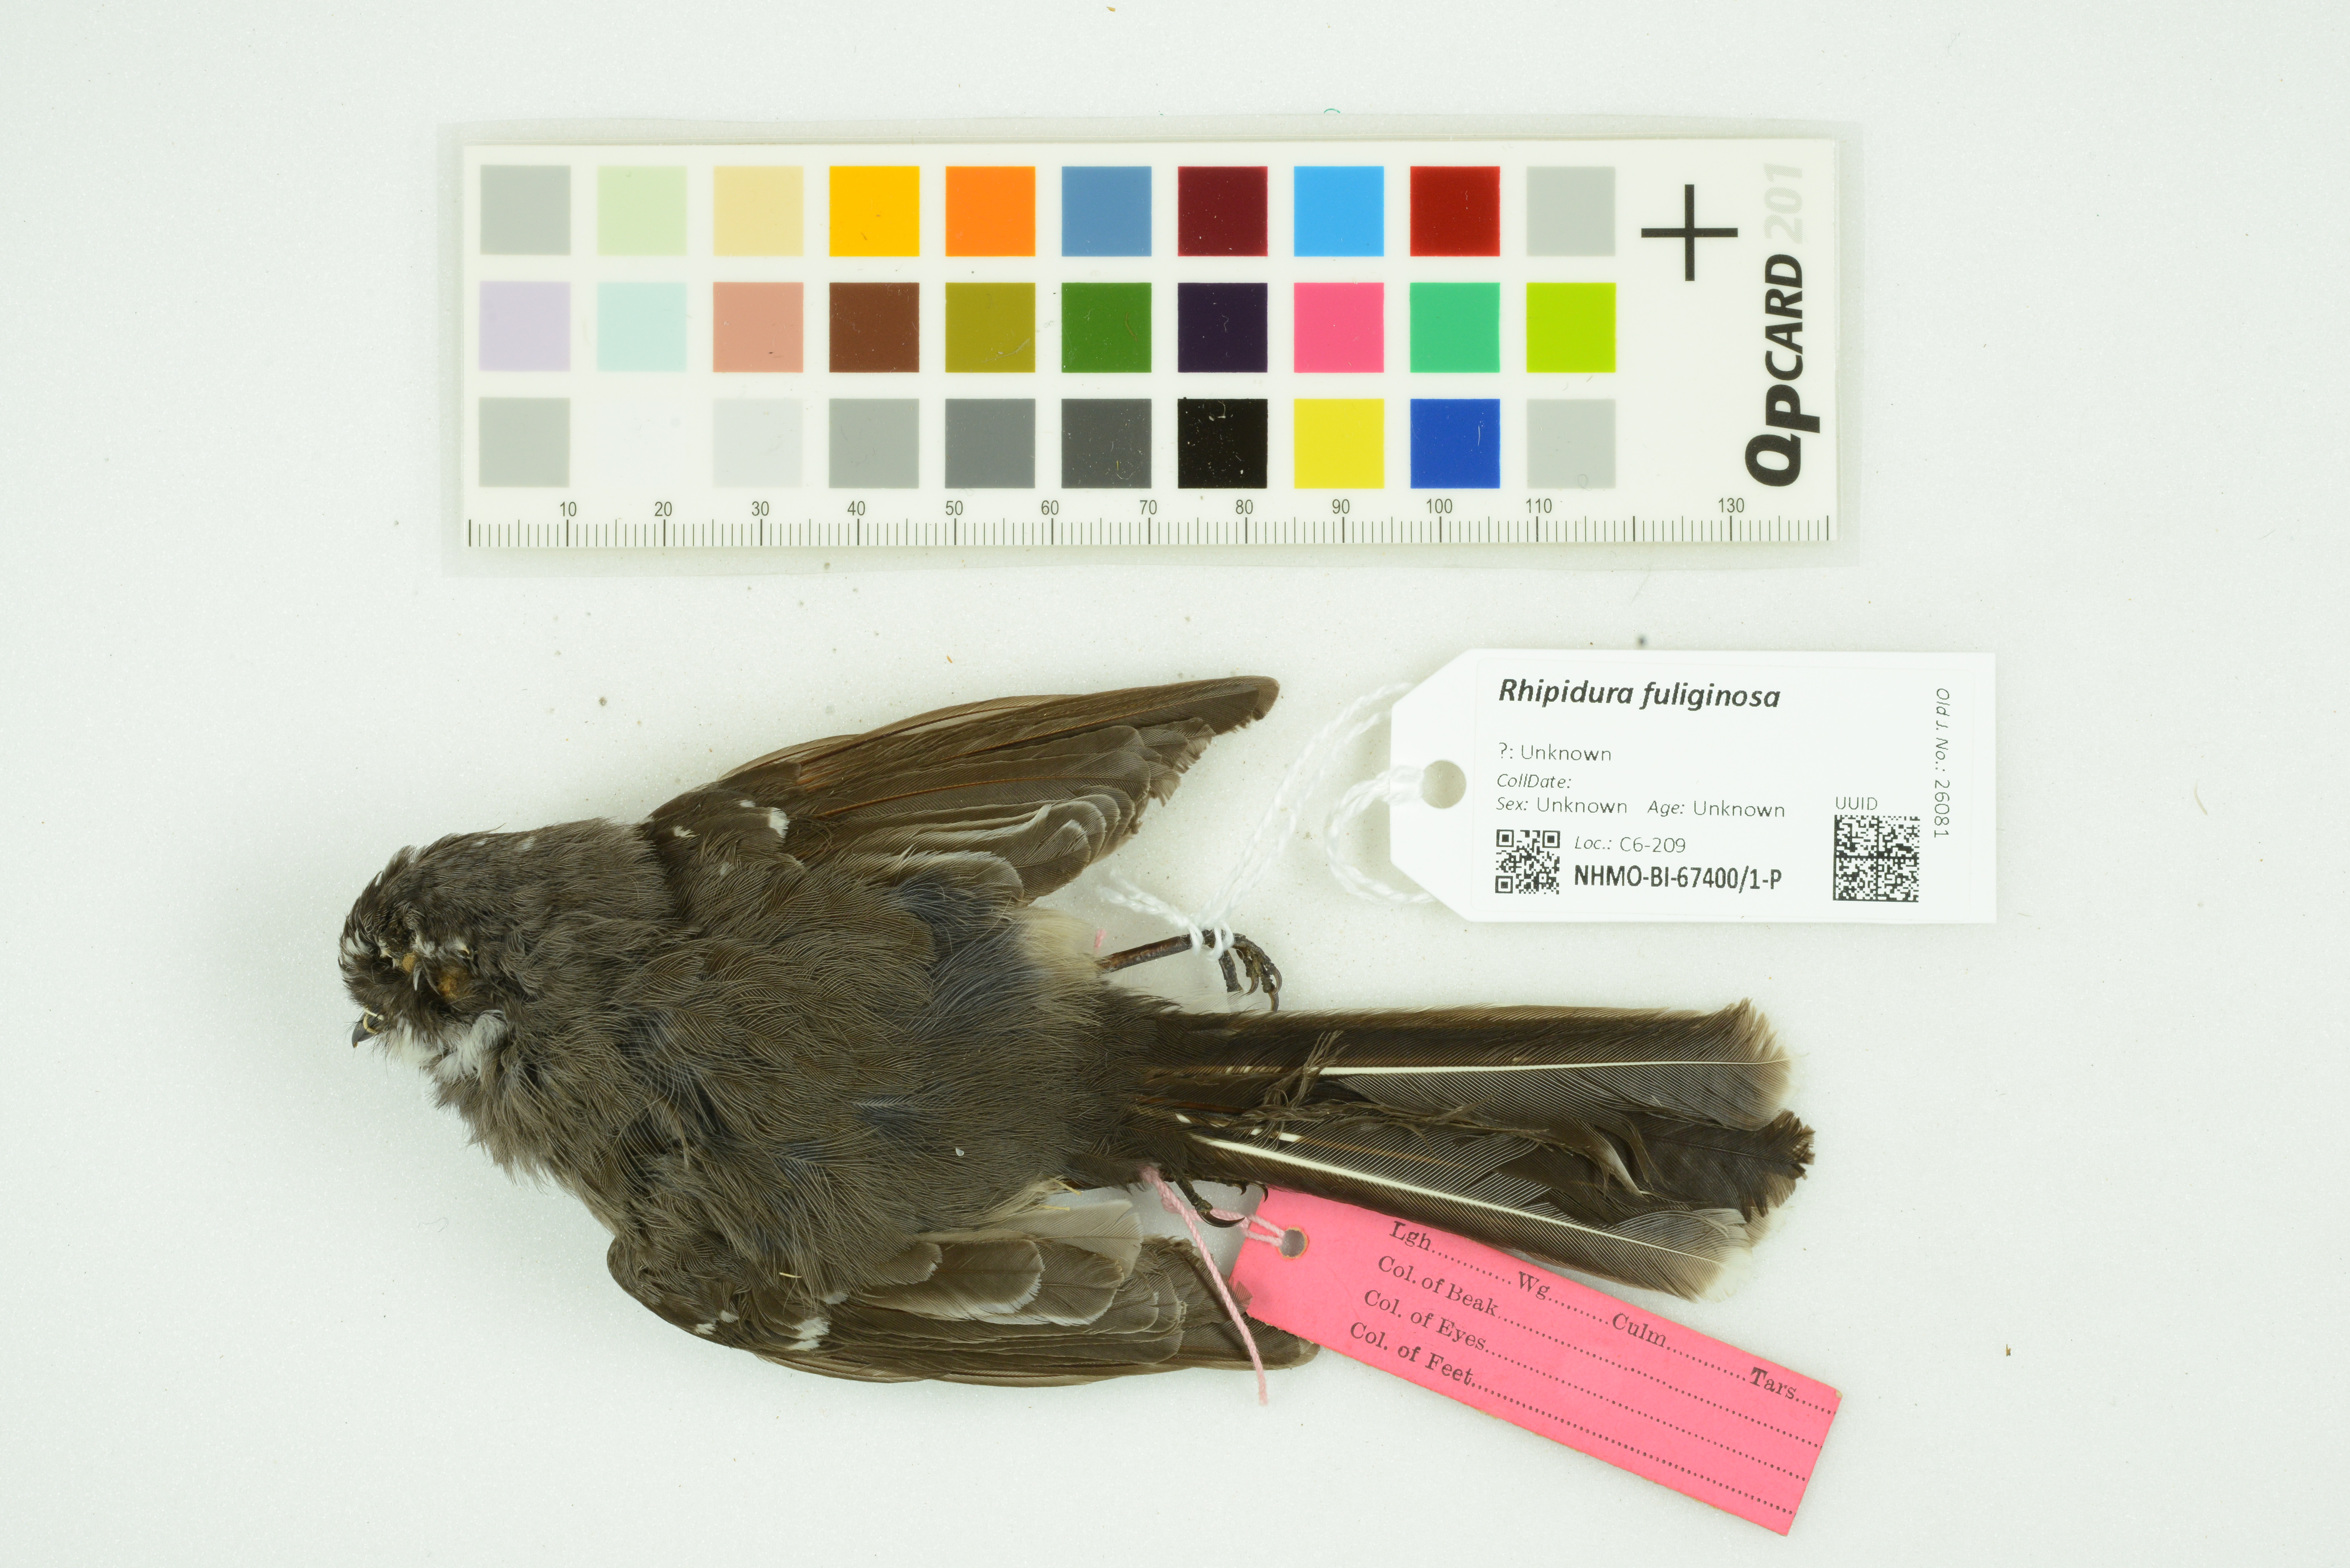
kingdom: Animalia
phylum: Chordata
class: Aves
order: Passeriformes
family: Rhipiduridae
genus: Rhipidura
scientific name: Rhipidura albiscapa
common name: Grey fantail
